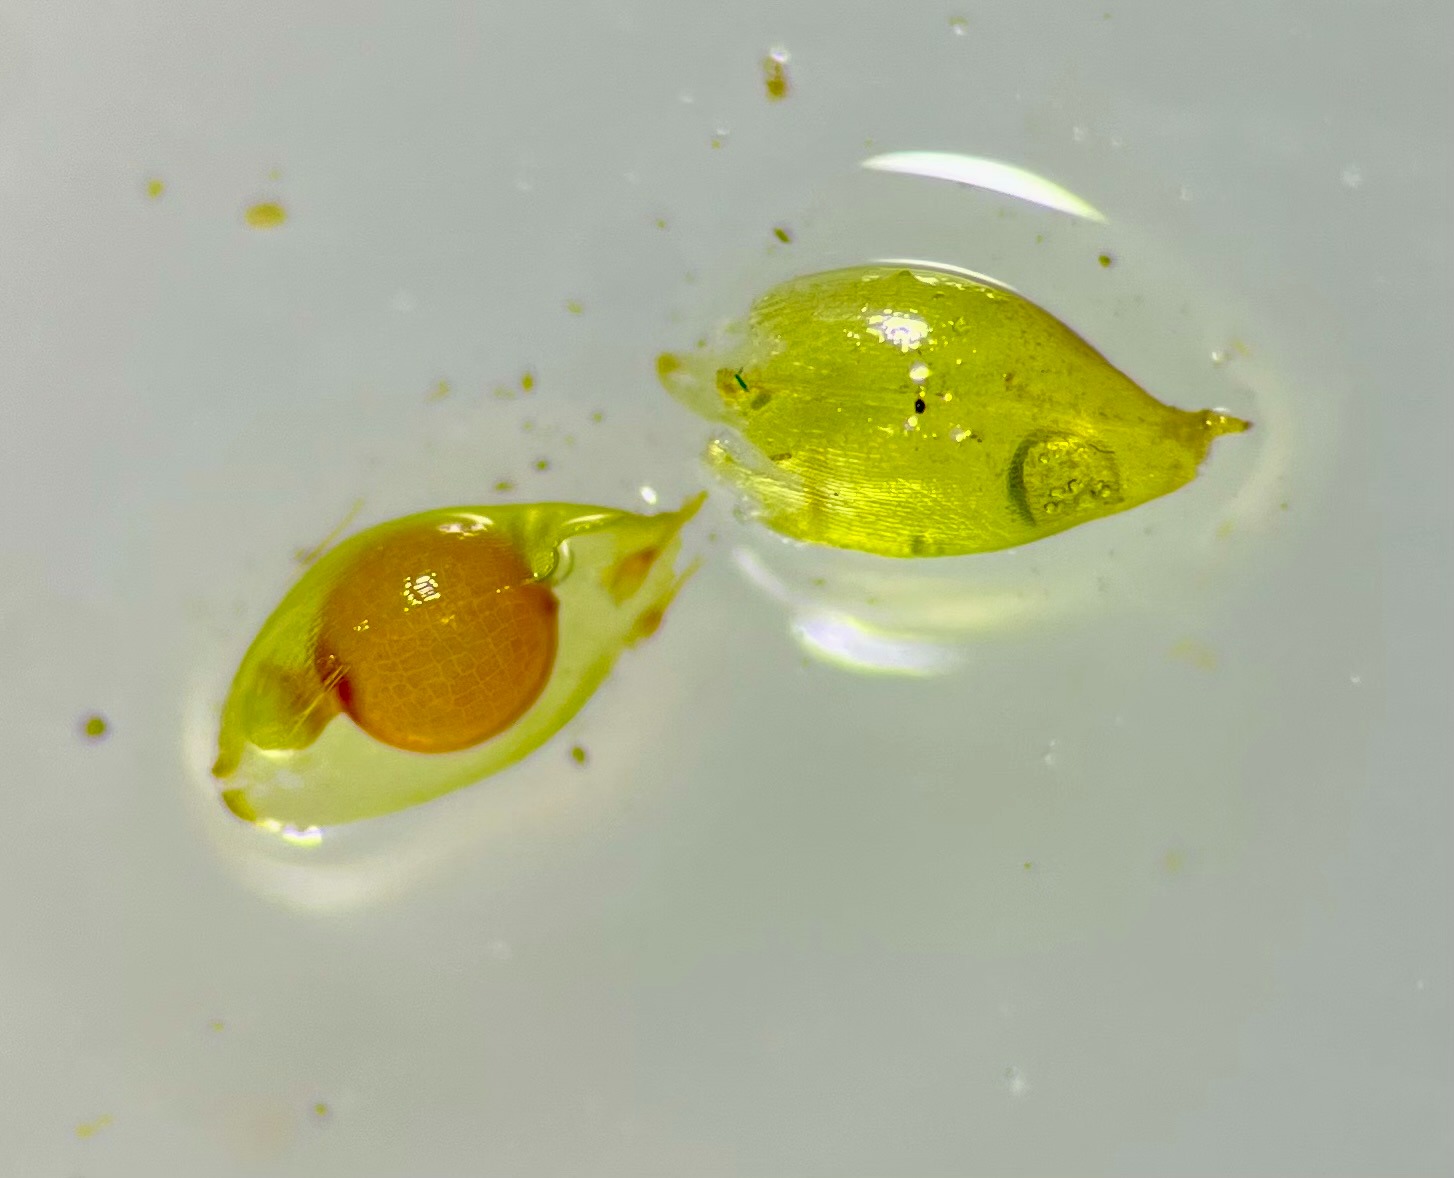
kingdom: Plantae
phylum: Bryophyta
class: Bryopsida
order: Pottiales
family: Pottiaceae
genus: Acaulon
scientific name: Acaulon muticum
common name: Siddende ægmos
